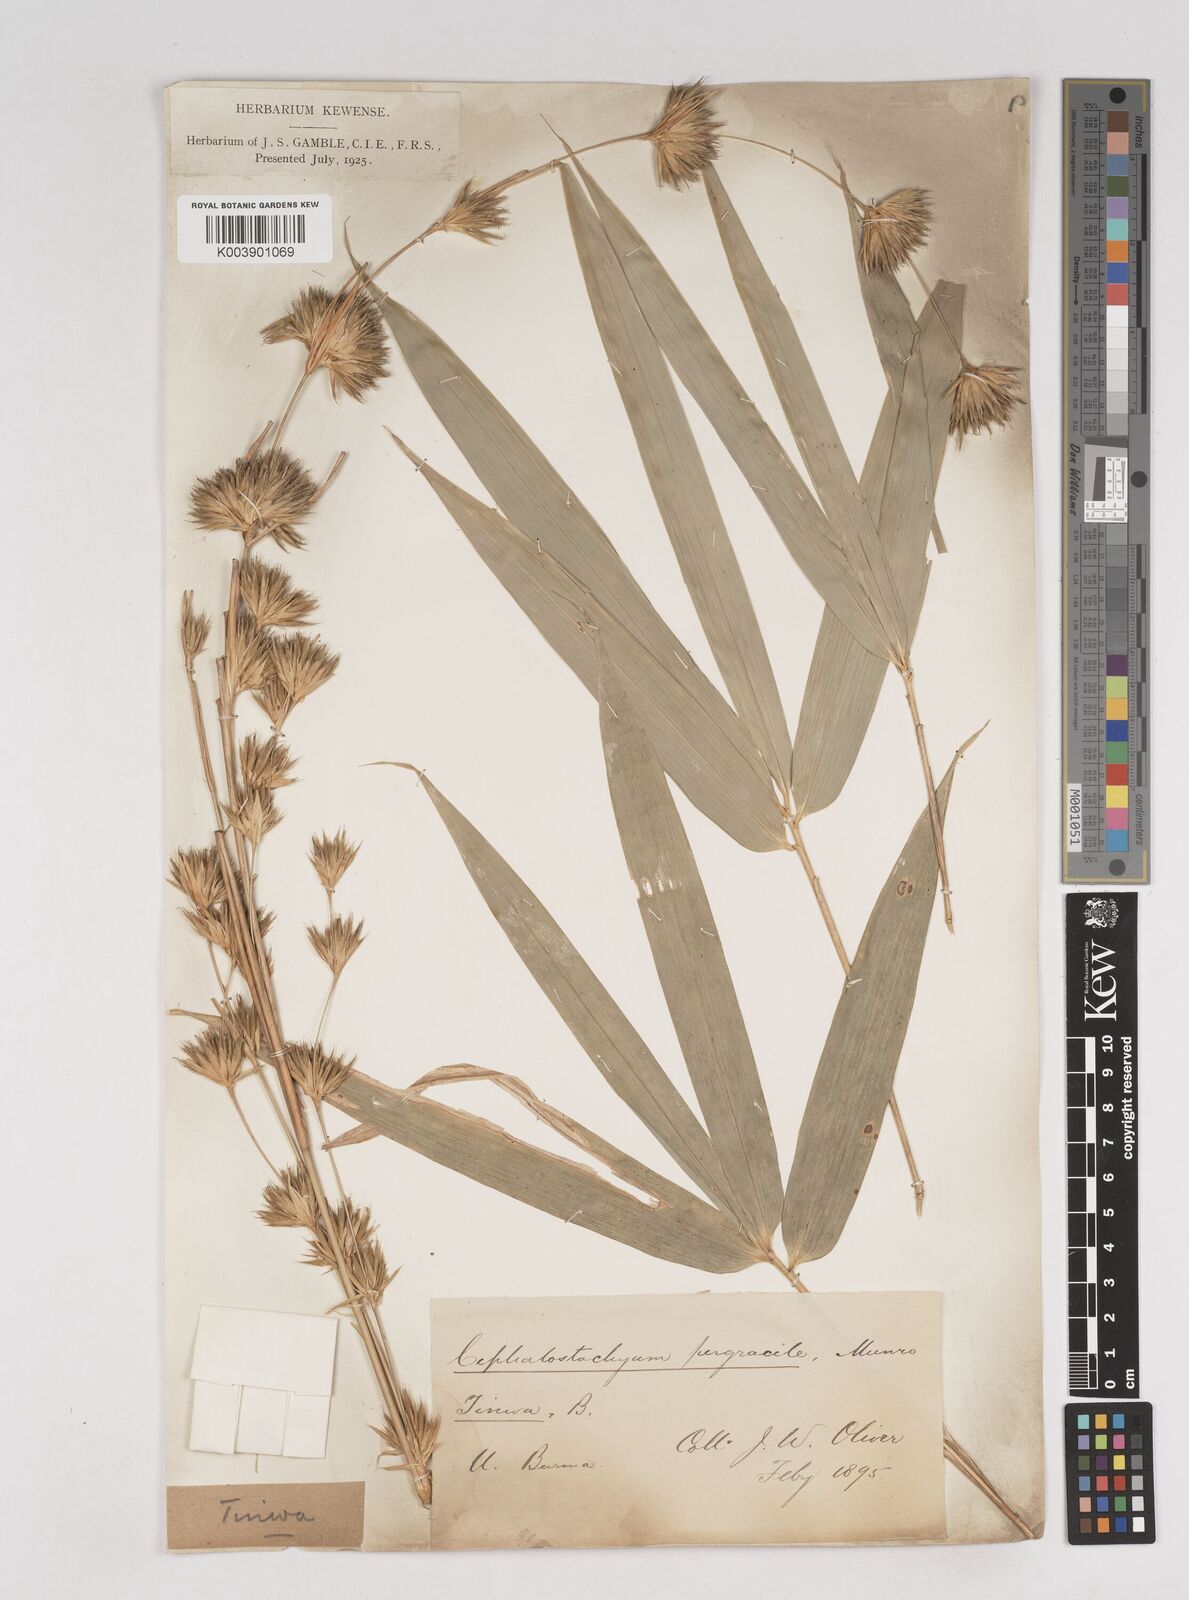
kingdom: Plantae
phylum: Tracheophyta
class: Liliopsida
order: Poales
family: Poaceae
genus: Schizostachyum
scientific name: Schizostachyum pergracile
